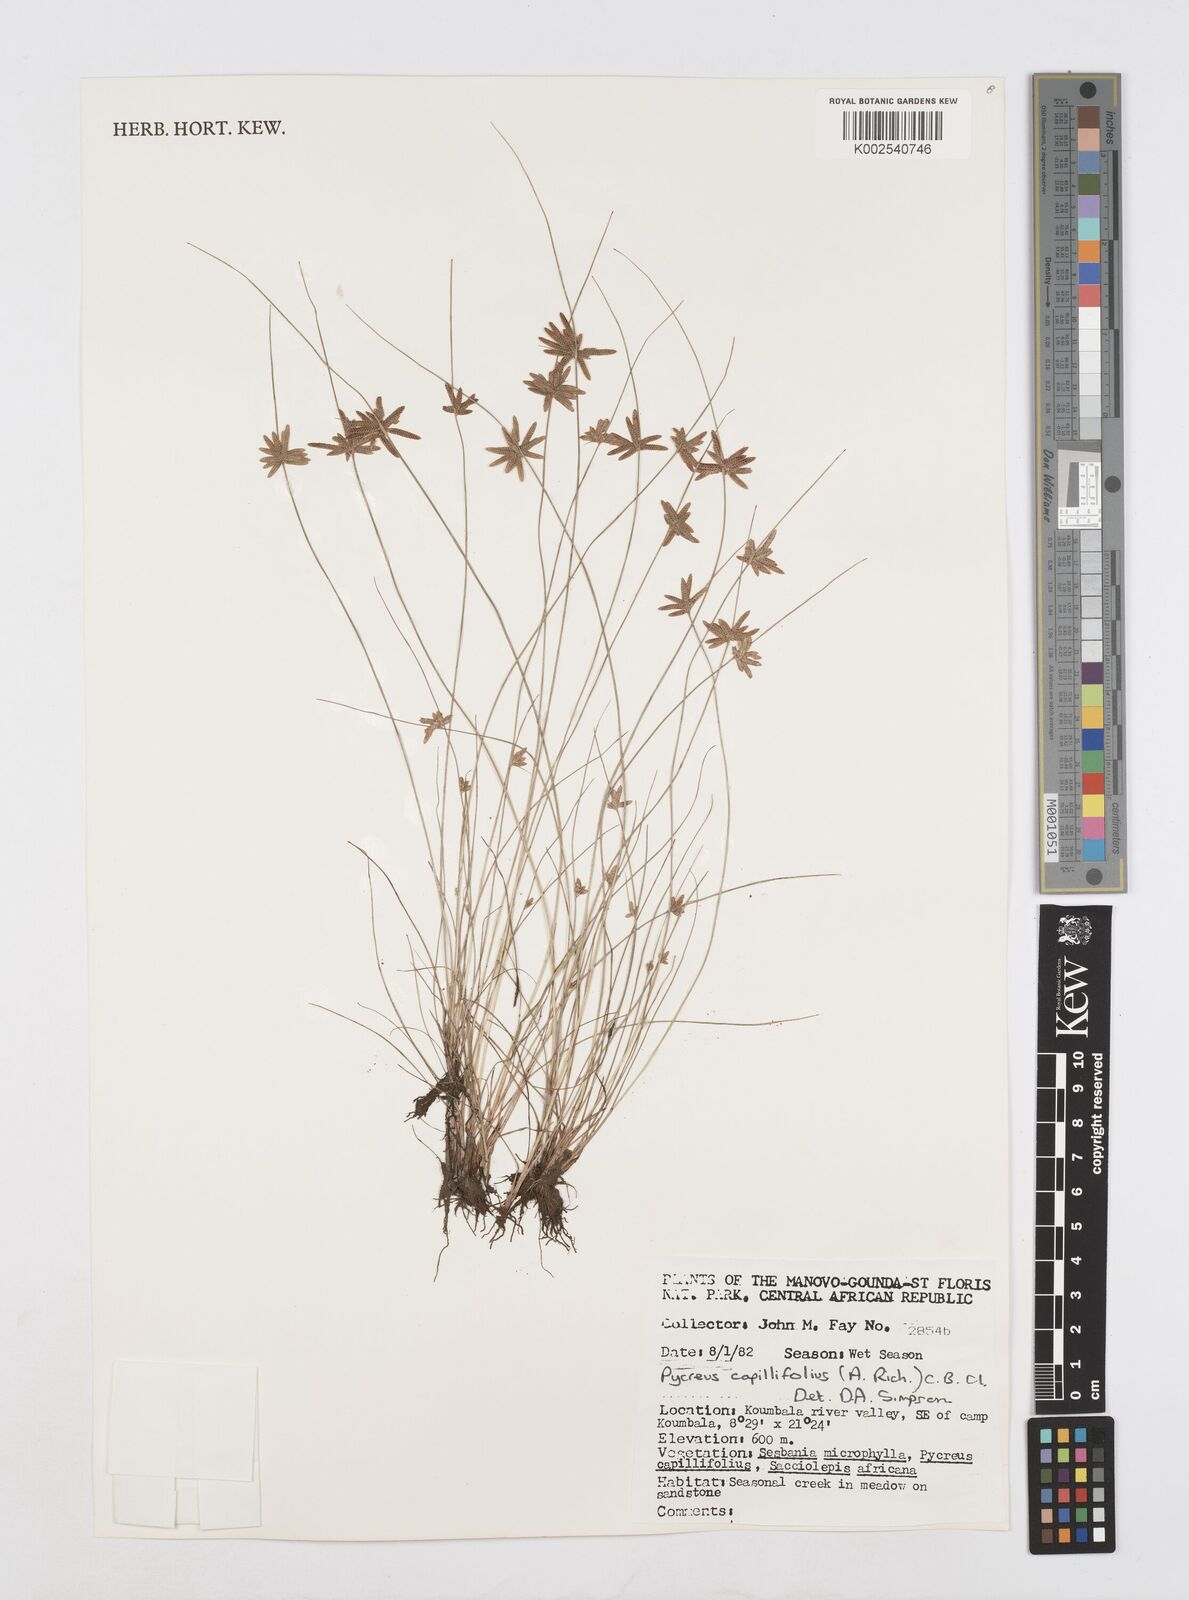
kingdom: Plantae
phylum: Tracheophyta
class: Liliopsida
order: Poales
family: Cyperaceae
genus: Cyperus
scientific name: Cyperus capillifolius
